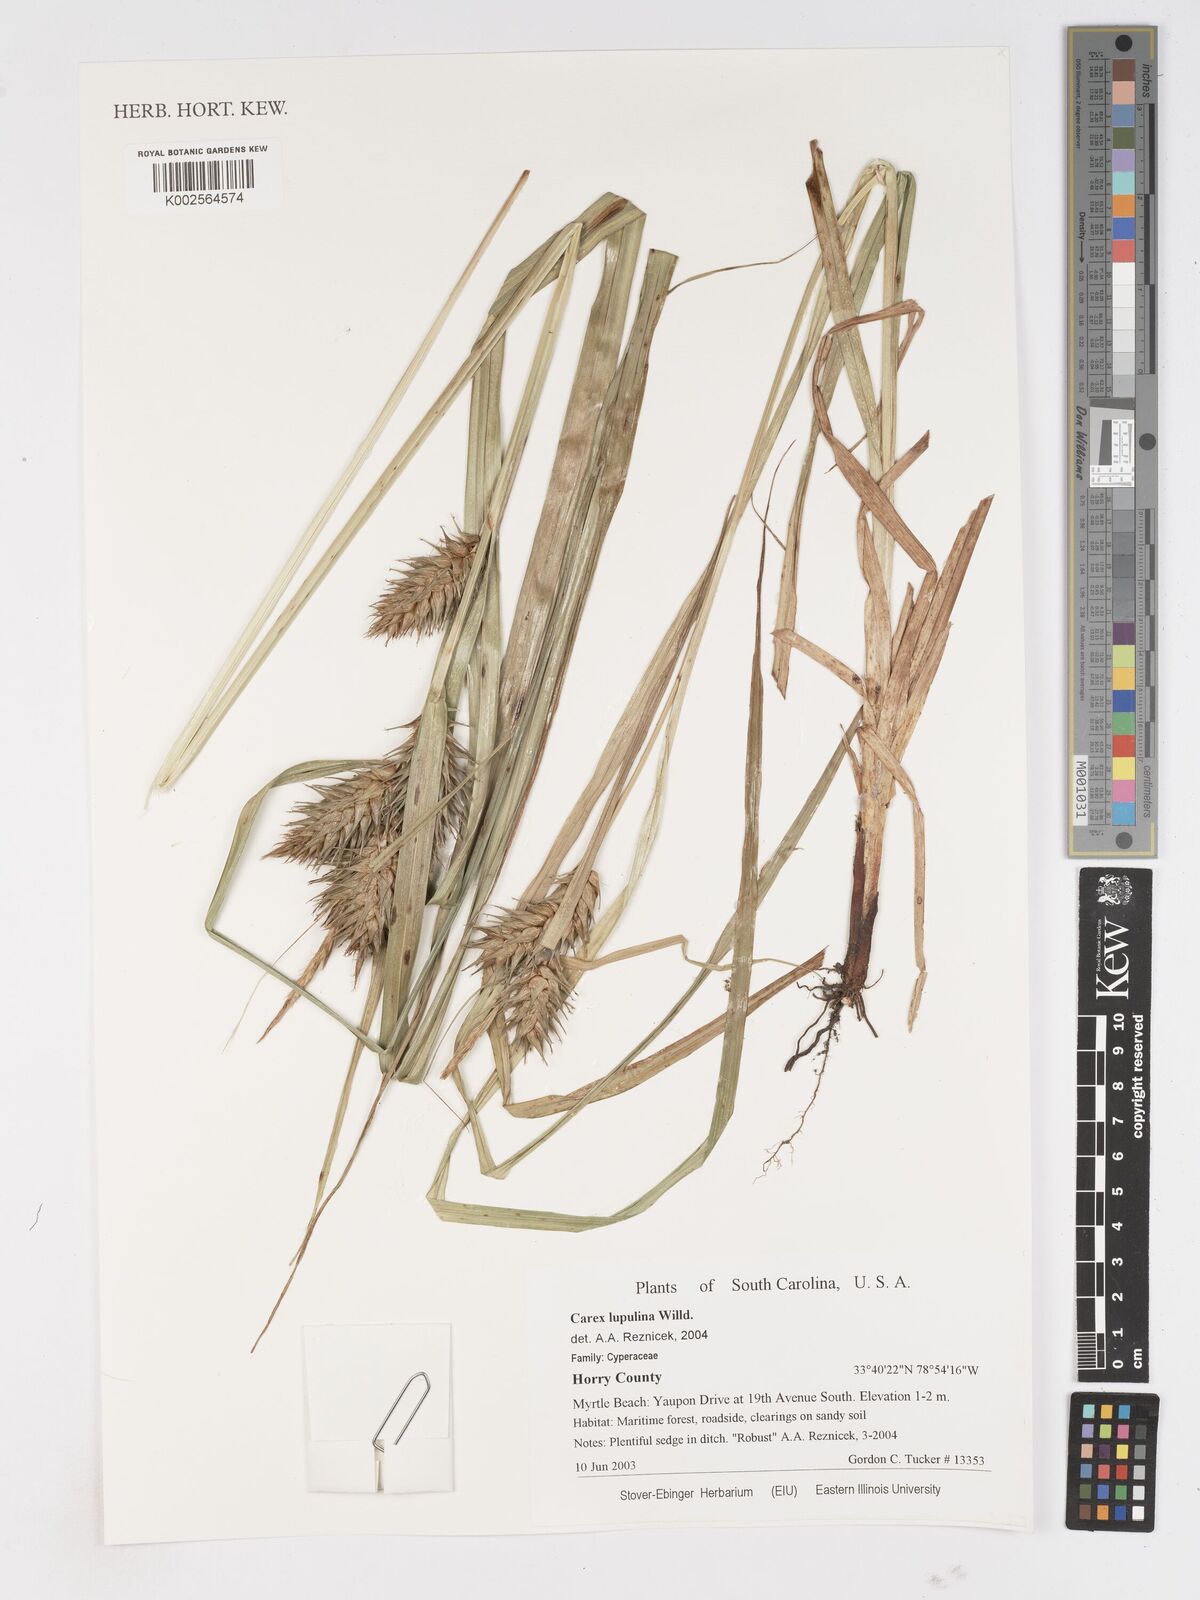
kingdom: Plantae
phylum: Tracheophyta
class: Liliopsida
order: Poales
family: Cyperaceae
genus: Carex
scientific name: Carex lupulina
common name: Hop sedge
